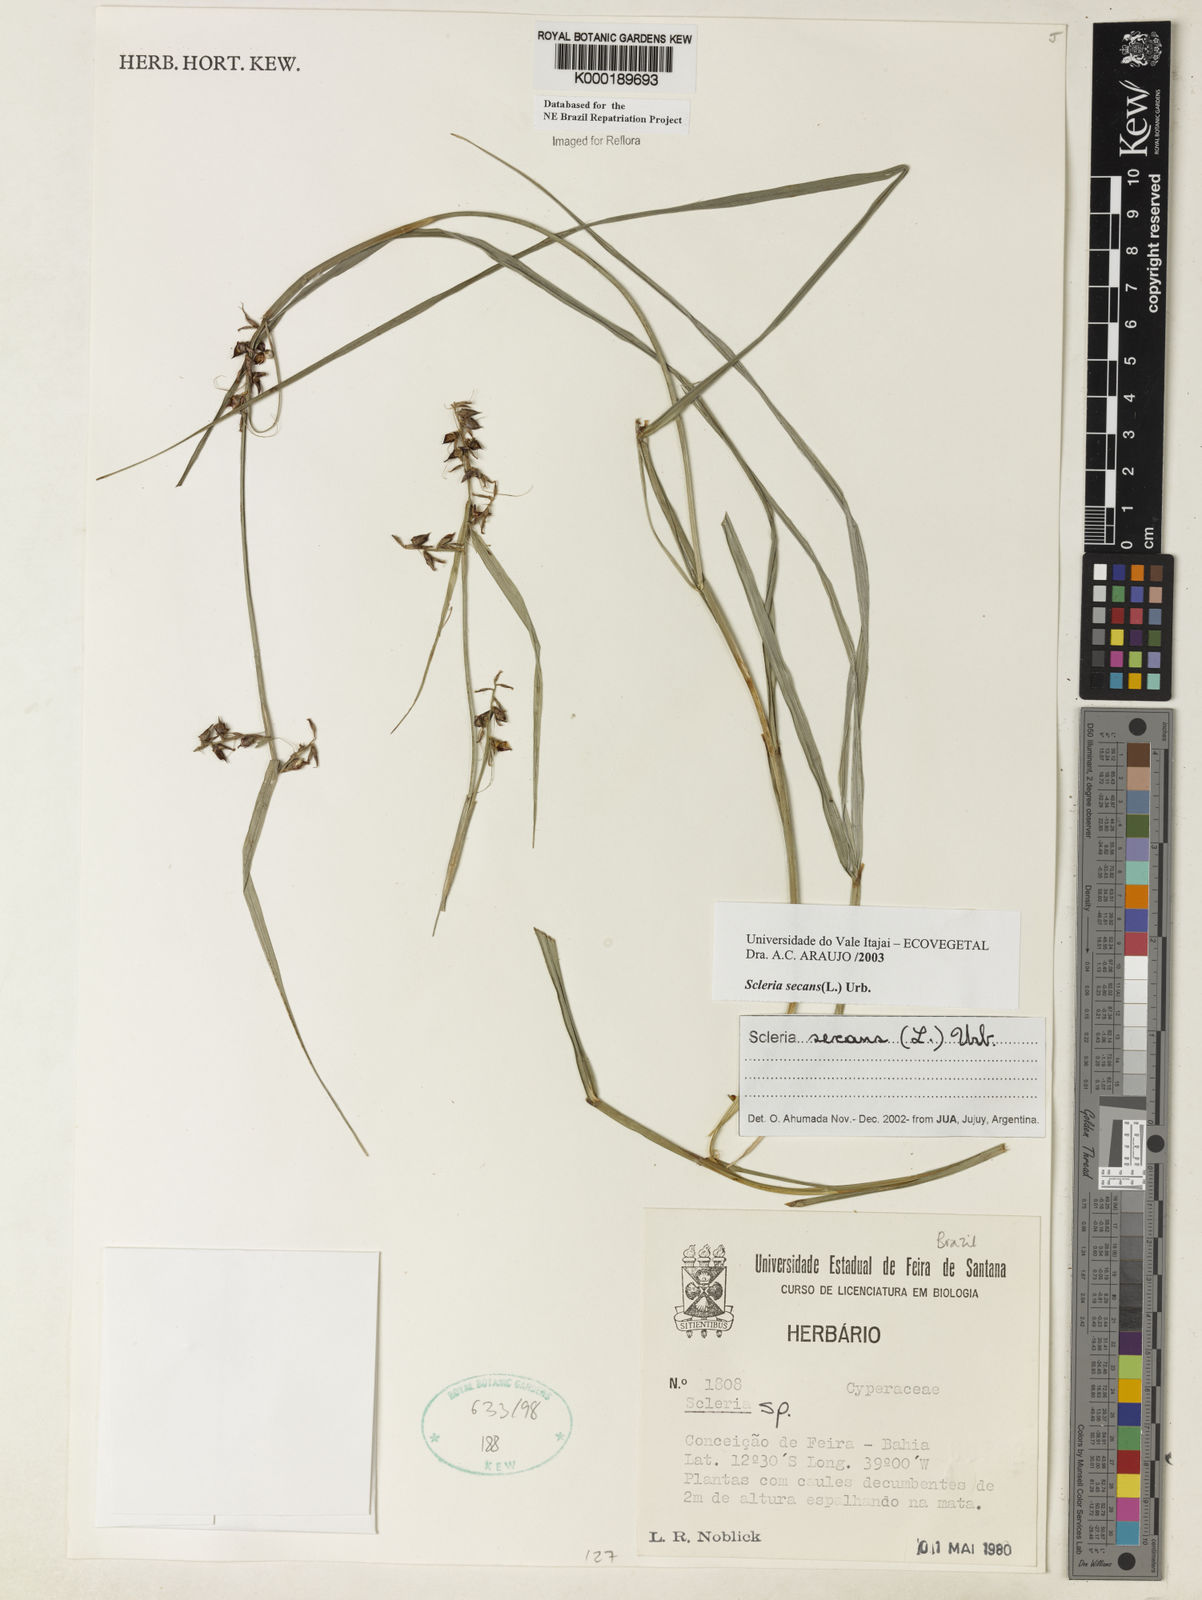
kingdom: Plantae
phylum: Tracheophyta
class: Liliopsida
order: Poales
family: Cyperaceae
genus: Scleria
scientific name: Scleria secans
